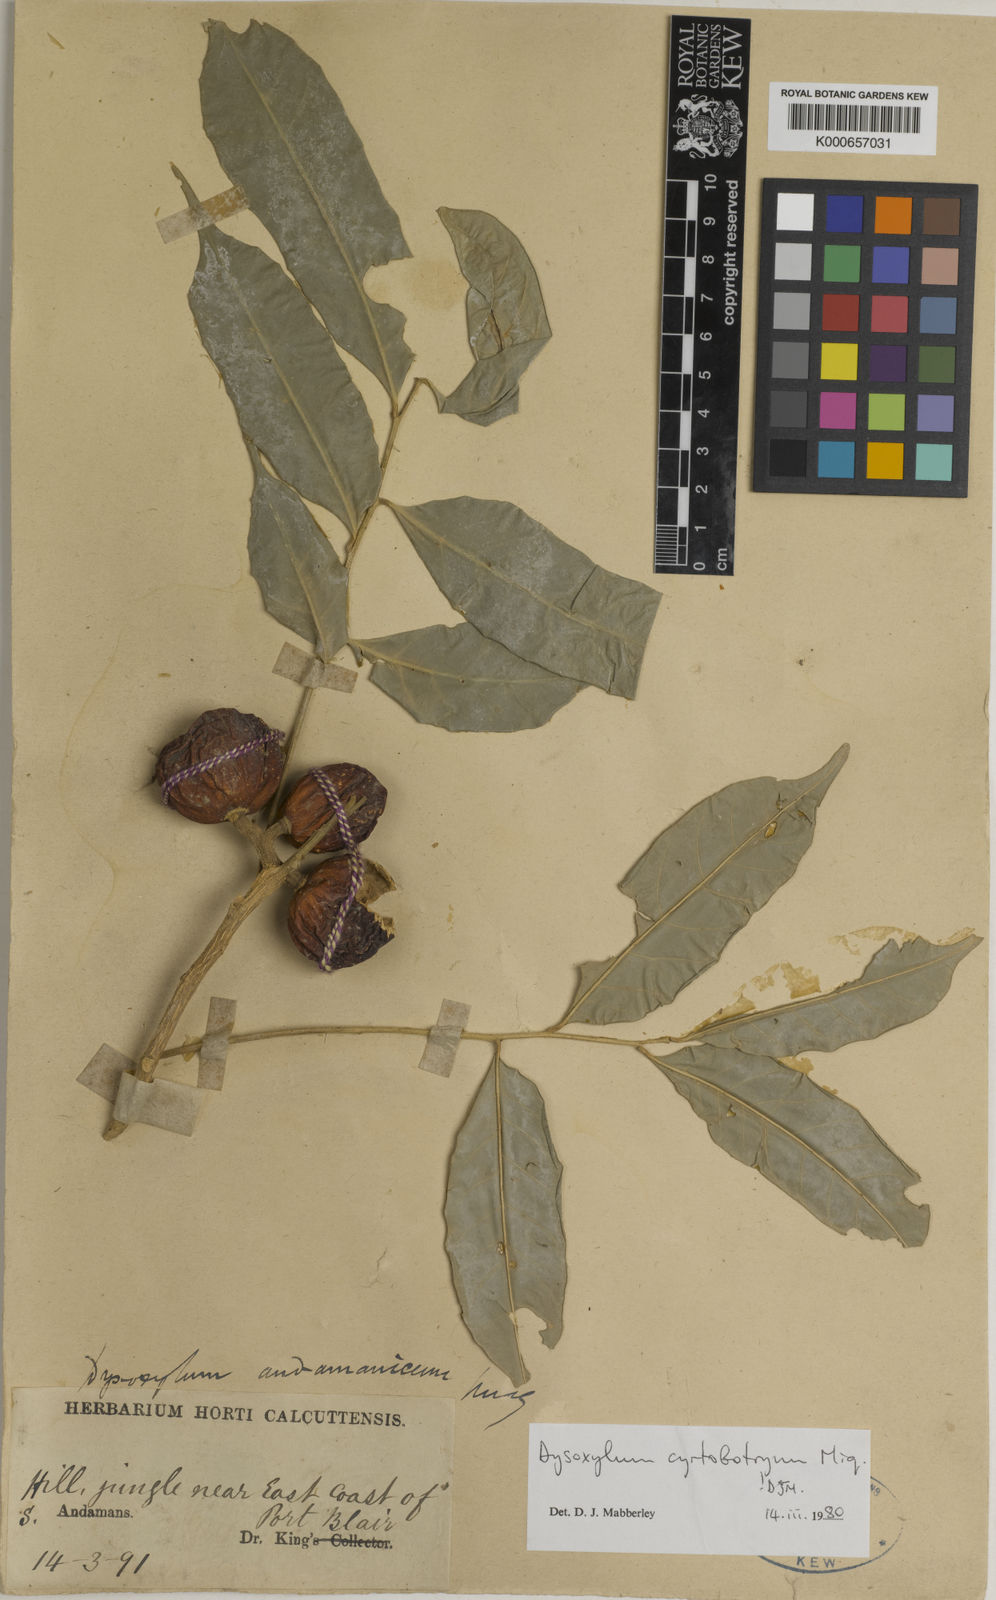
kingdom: Plantae
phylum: Tracheophyta
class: Magnoliopsida
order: Sapindales
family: Meliaceae
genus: Dysoxylum
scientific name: Dysoxylum cyrtobotryum
